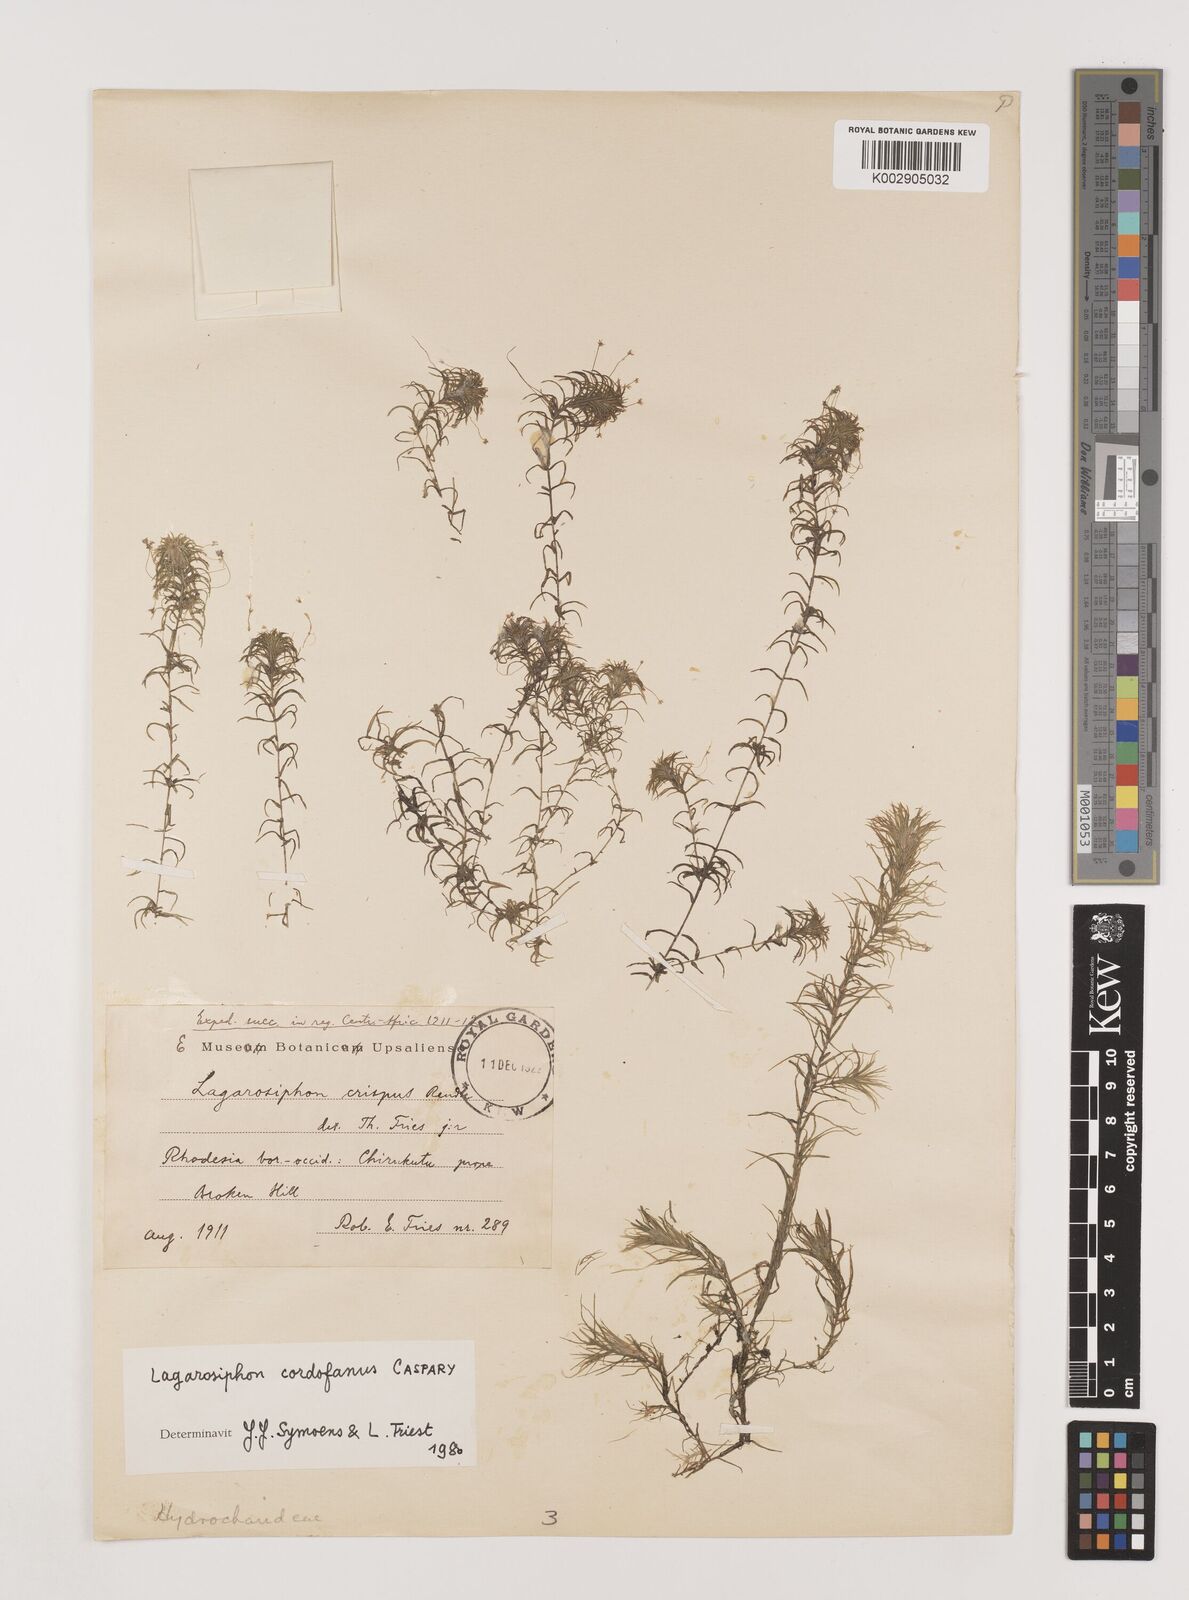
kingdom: Plantae
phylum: Tracheophyta
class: Liliopsida
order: Alismatales
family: Hydrocharitaceae
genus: Lagarosiphon
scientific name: Lagarosiphon cordofanus
